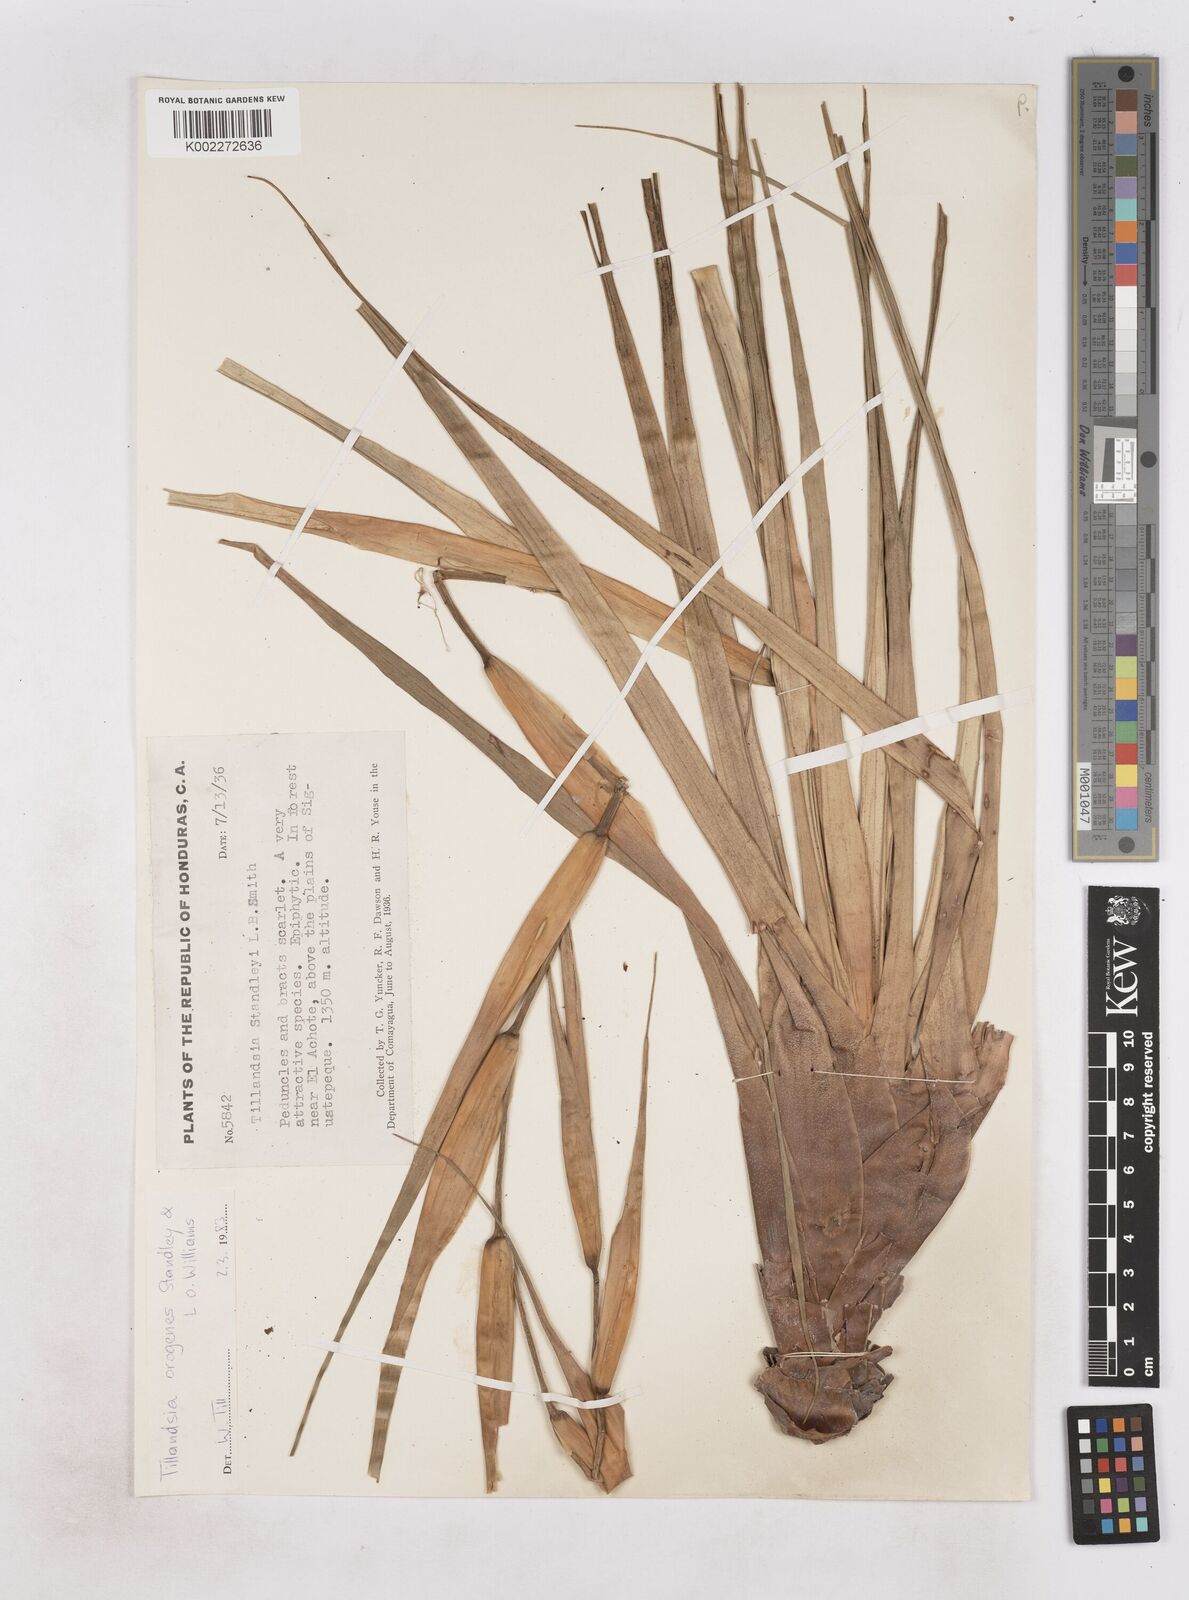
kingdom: Plantae
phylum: Tracheophyta
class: Liliopsida
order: Poales
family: Bromeliaceae
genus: Tillandsia
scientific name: Tillandsia orogenes
